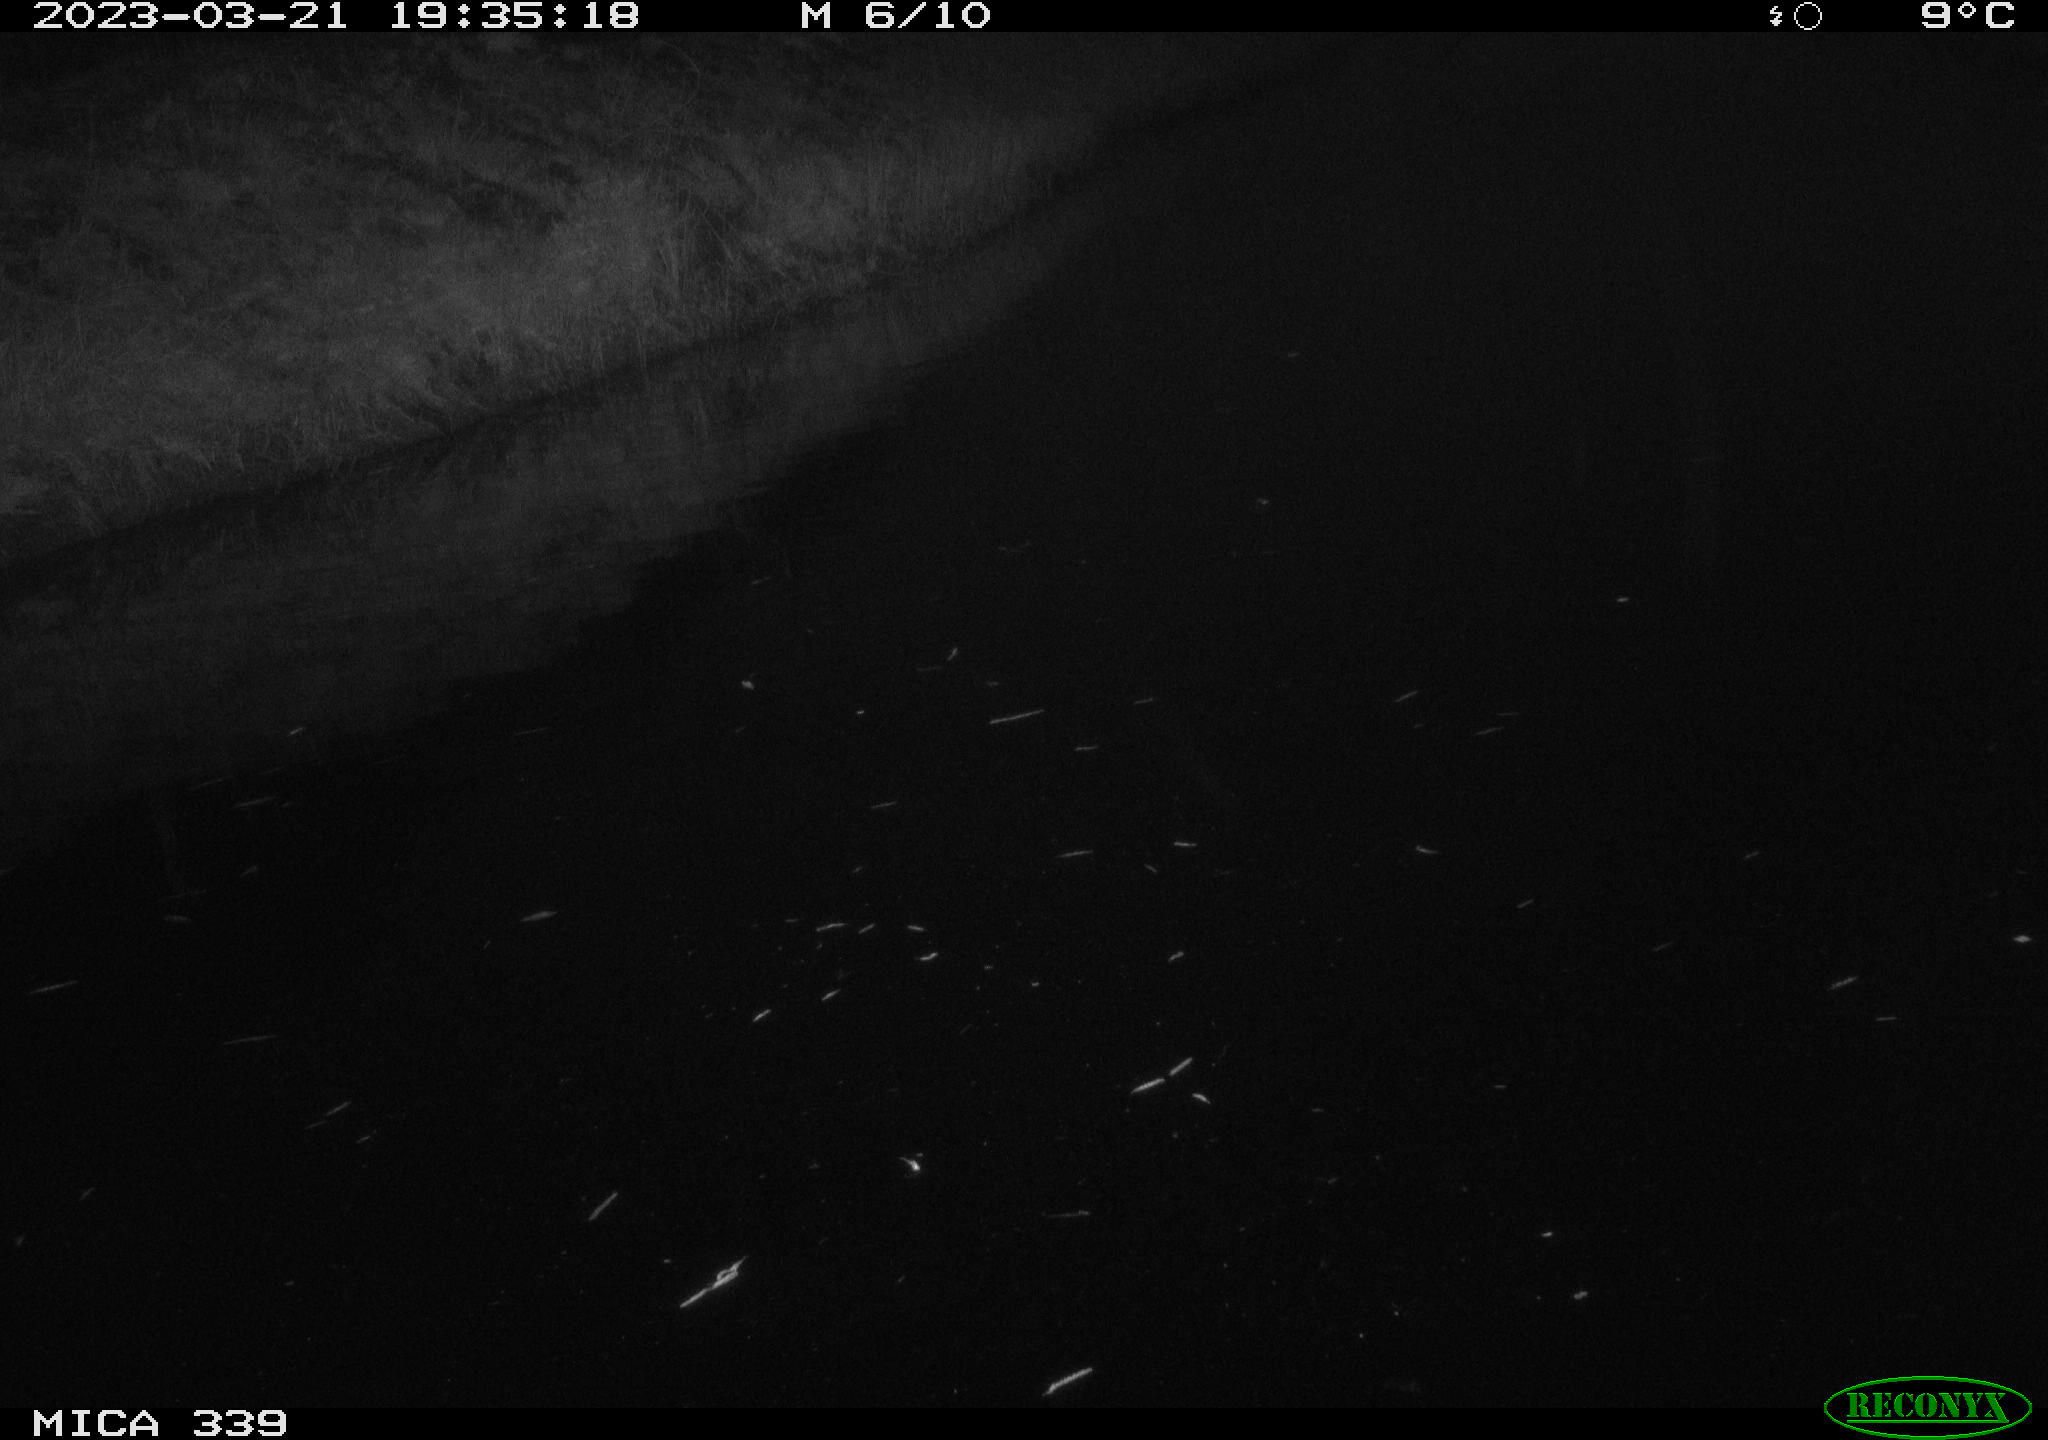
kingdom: Animalia
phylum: Chordata
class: Aves
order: Pelecaniformes
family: Ardeidae
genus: Ardea
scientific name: Ardea cinerea
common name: Grey heron
